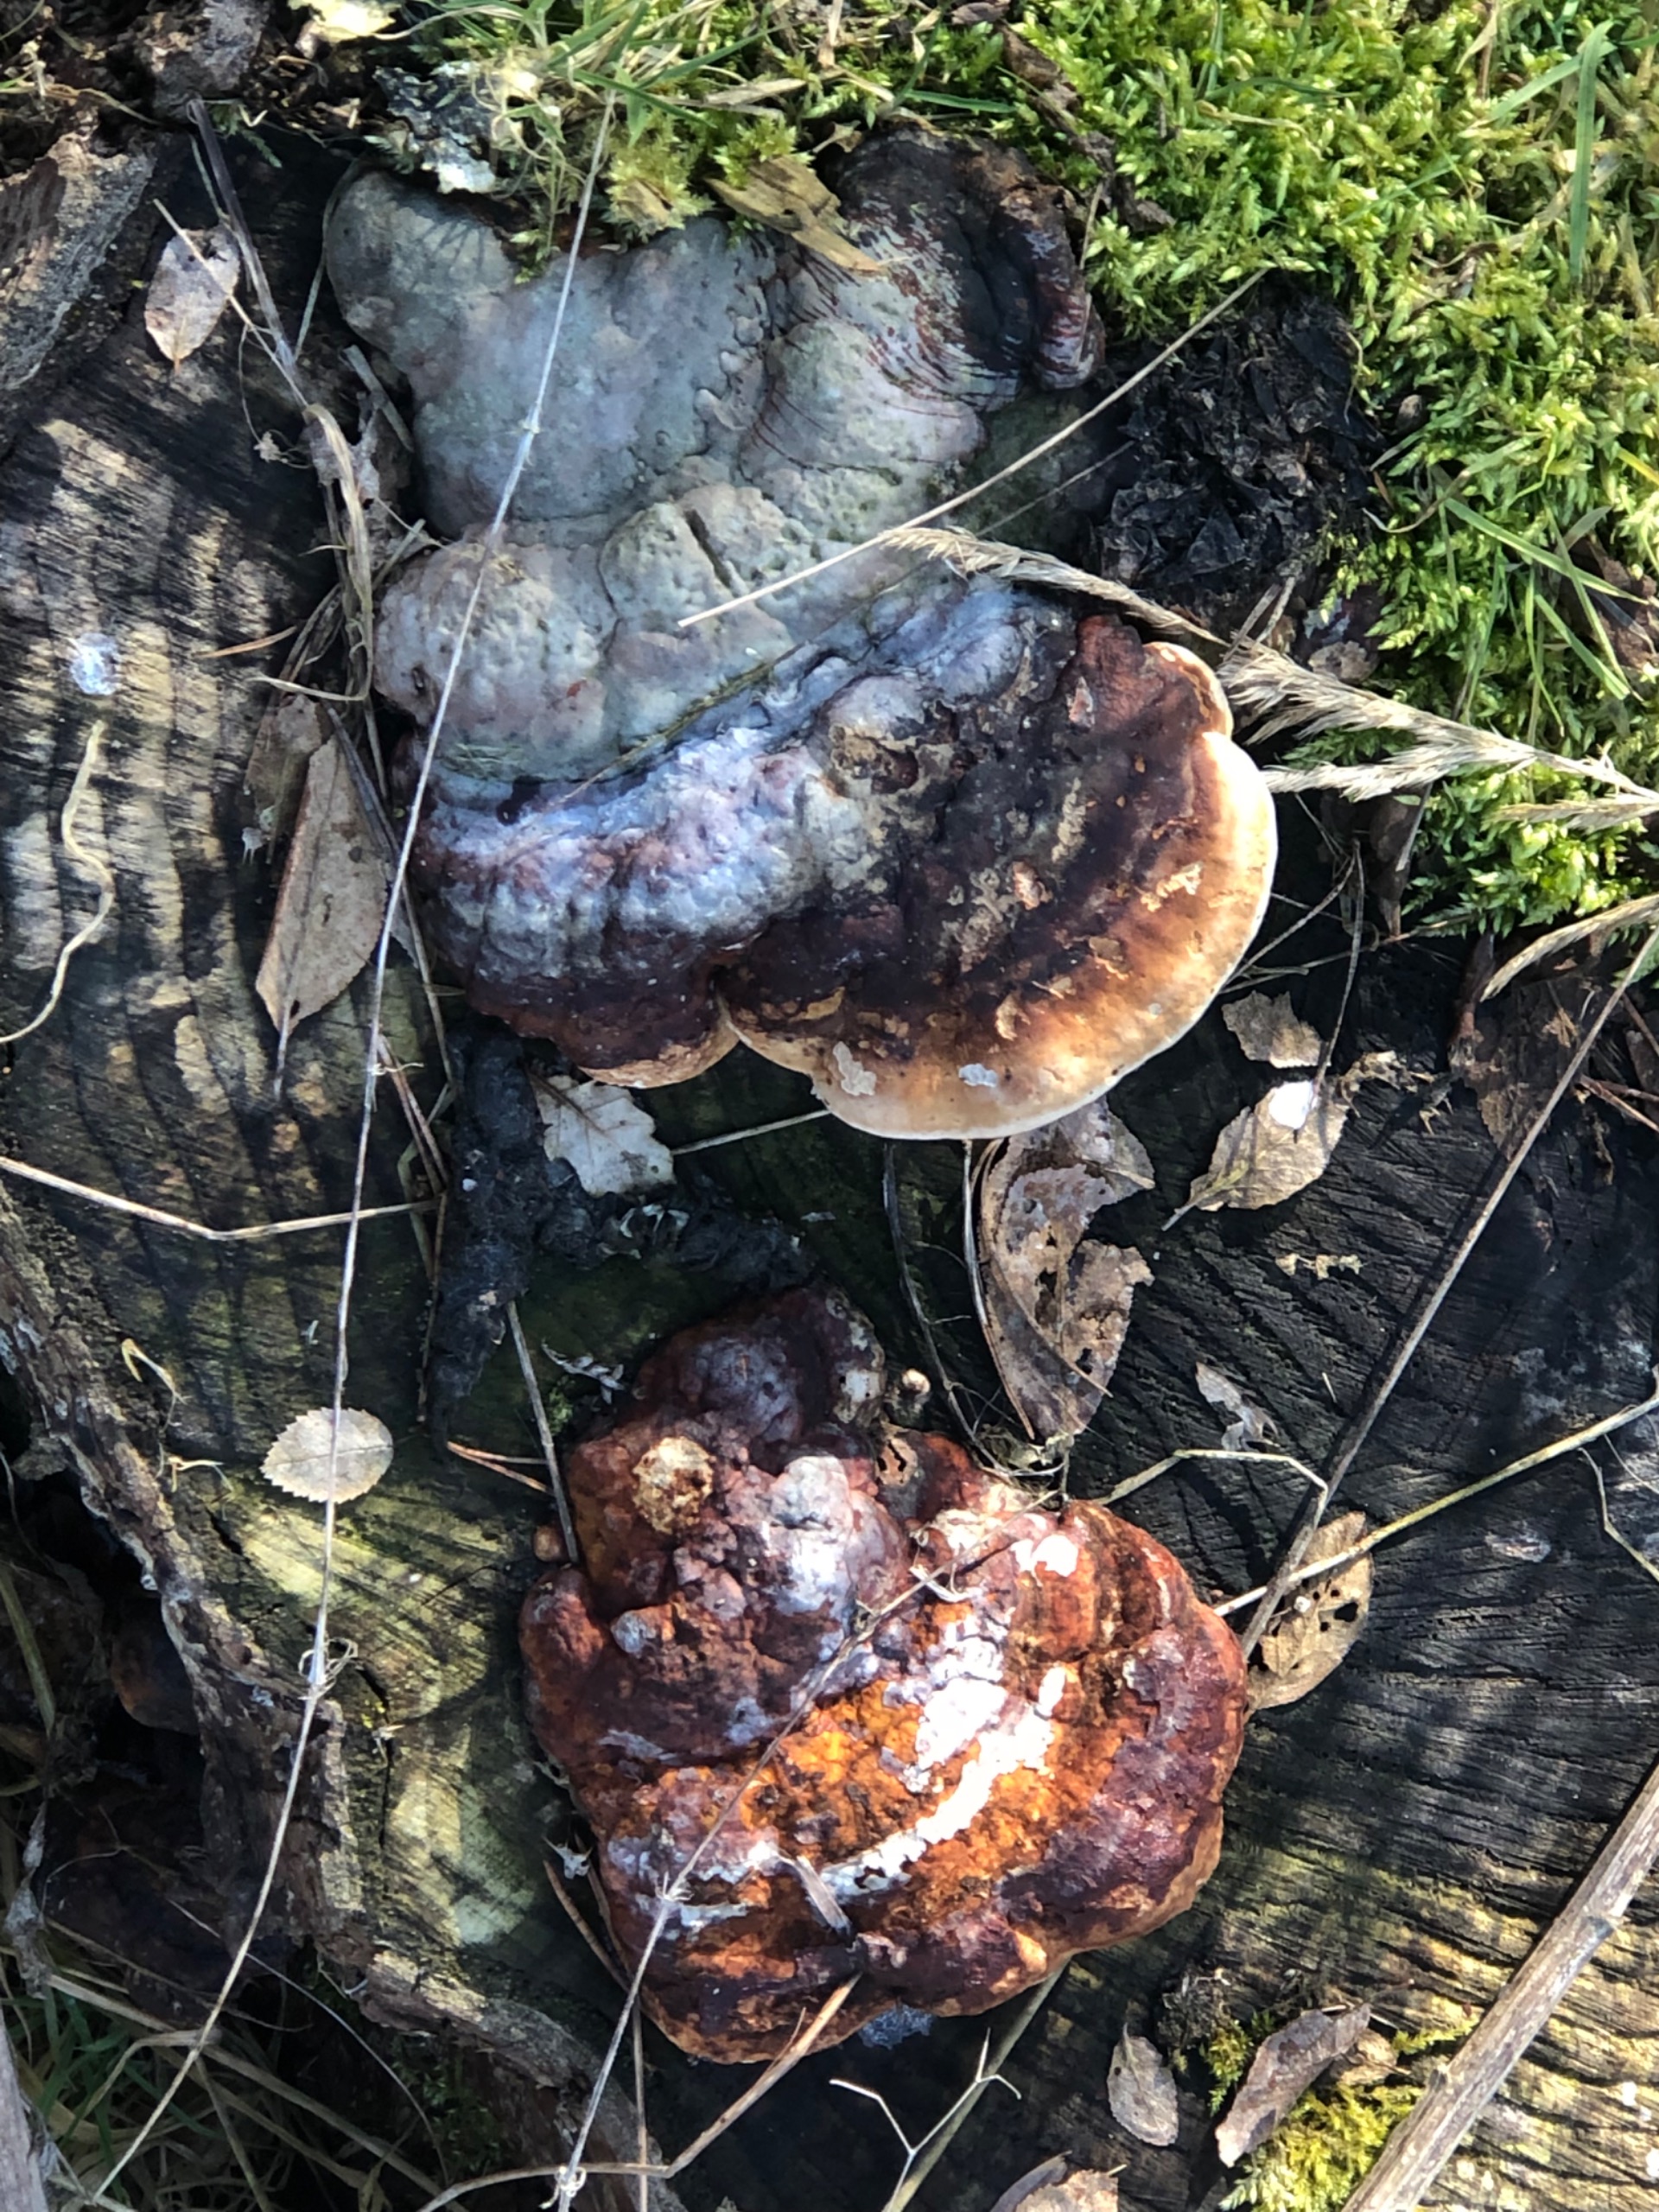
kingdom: Fungi
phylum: Basidiomycota
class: Agaricomycetes
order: Polyporales
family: Fomitopsidaceae
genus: Fomitopsis
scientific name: Fomitopsis pinicola
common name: Randbæltet hovporesvamp
